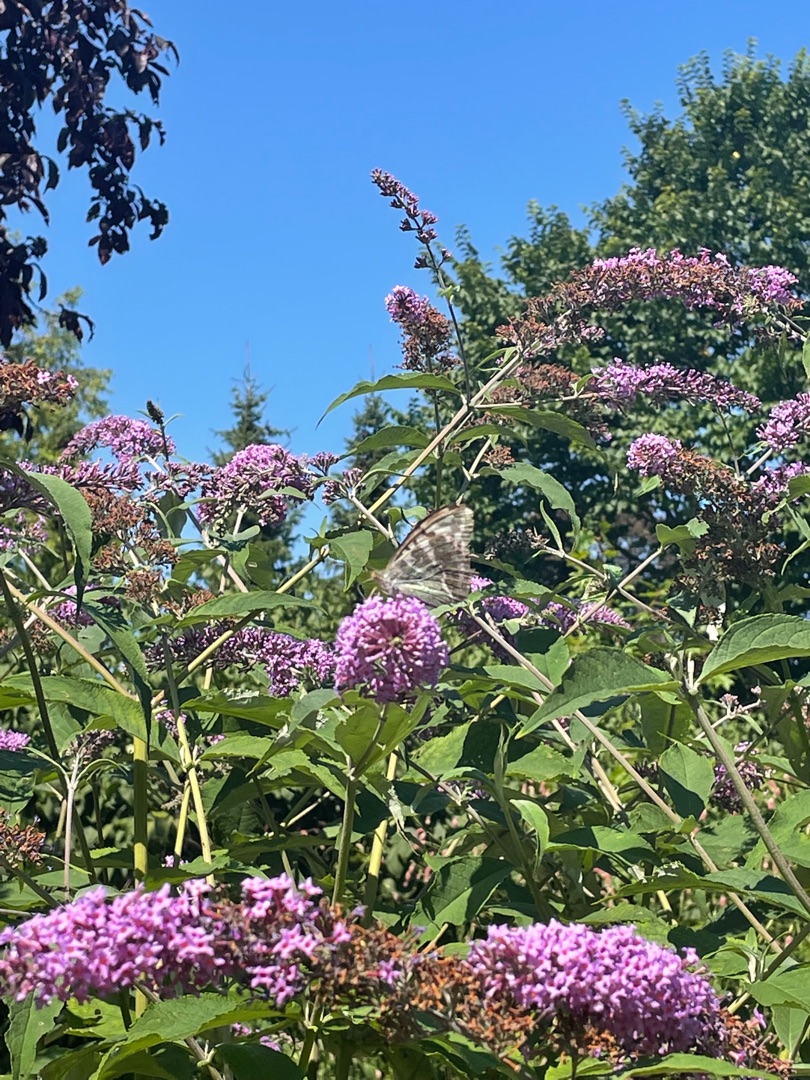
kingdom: Animalia
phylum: Arthropoda
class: Insecta
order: Lepidoptera
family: Nymphalidae
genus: Argynnis
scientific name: Argynnis paphia
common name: Kejserkåbe
